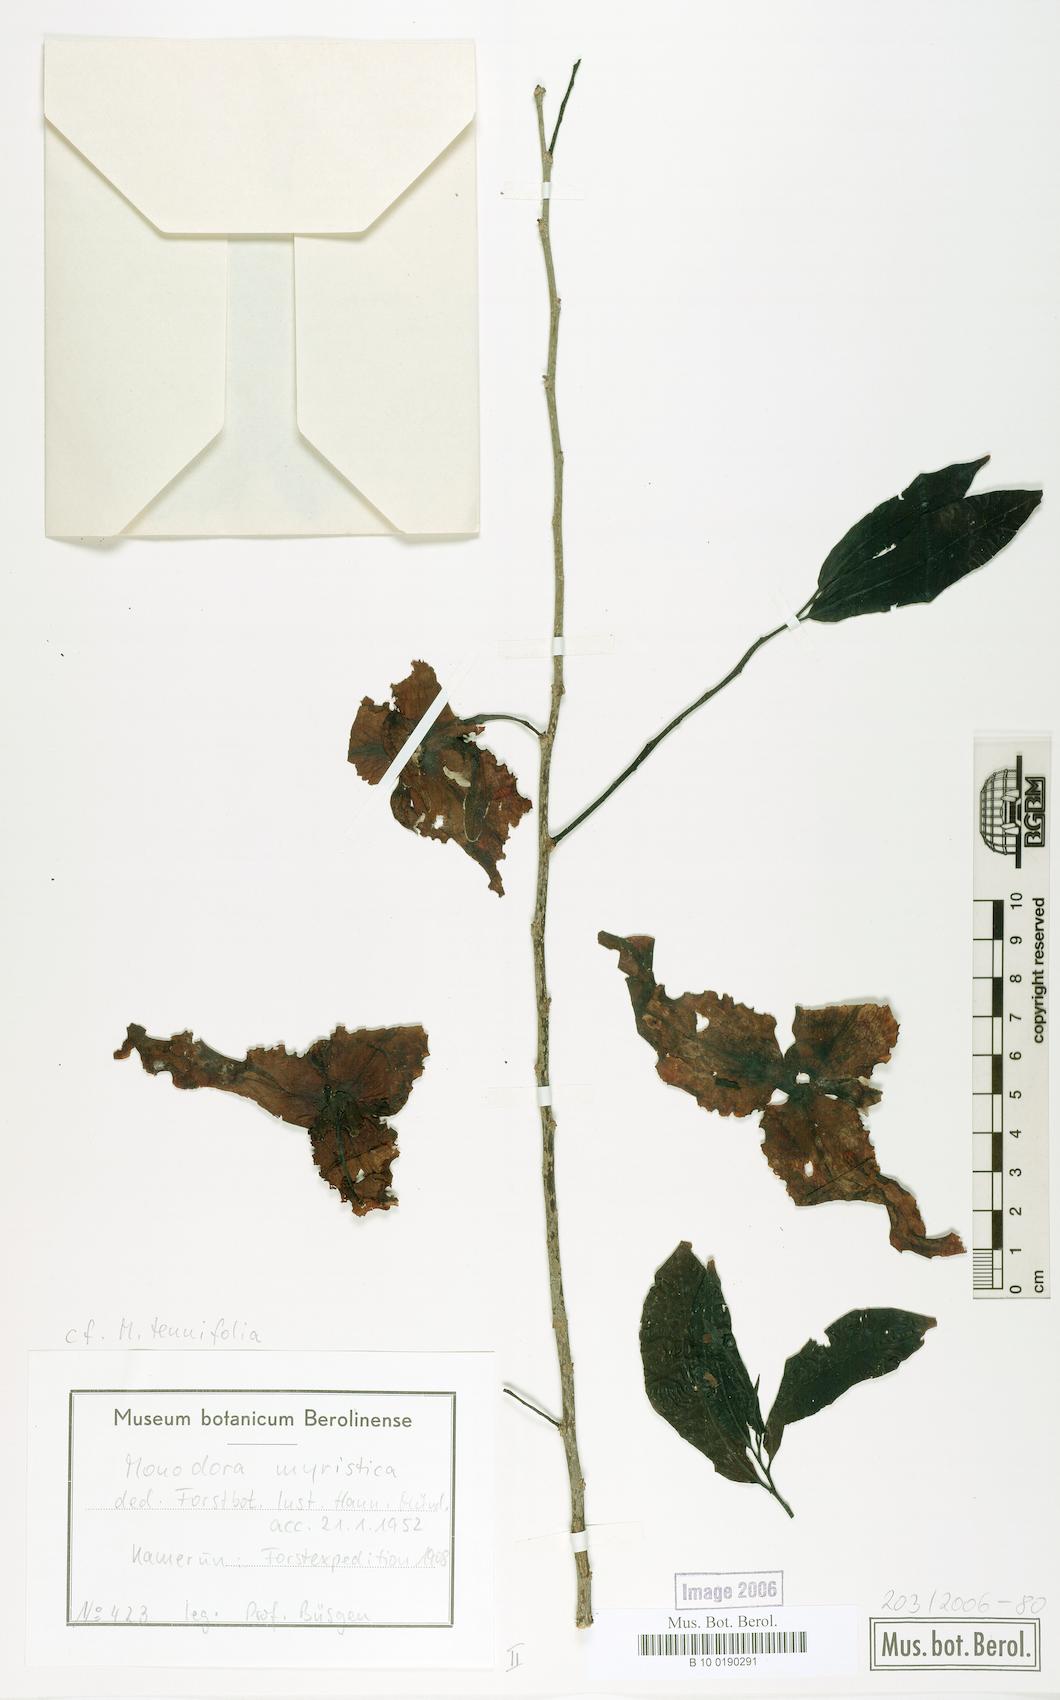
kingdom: Plantae
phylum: Tracheophyta
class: Magnoliopsida
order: Magnoliales
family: Annonaceae
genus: Monodora
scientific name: Monodora tenuifolia
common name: Orchidtree
